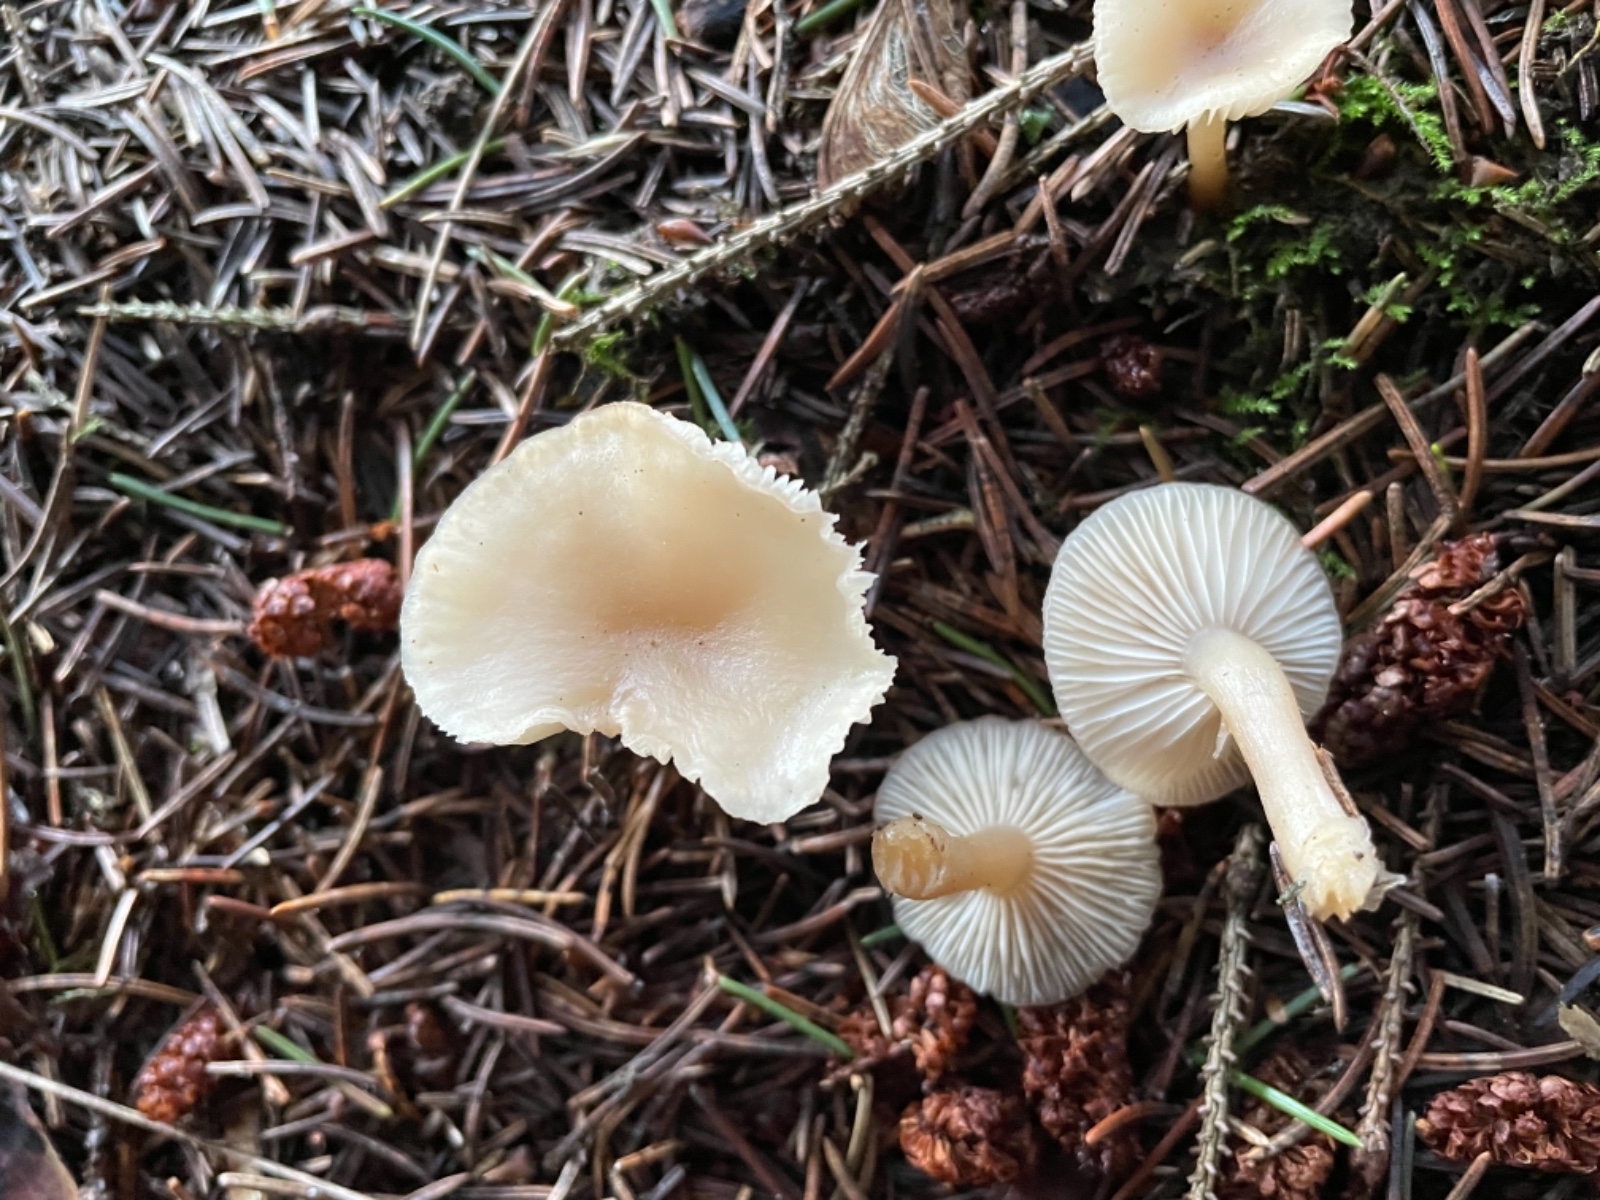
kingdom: Fungi
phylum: Basidiomycota
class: Agaricomycetes
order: Agaricales
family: Tricholomataceae
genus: Clitocybe
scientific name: Clitocybe fragrans
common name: vellugtende tragthat
